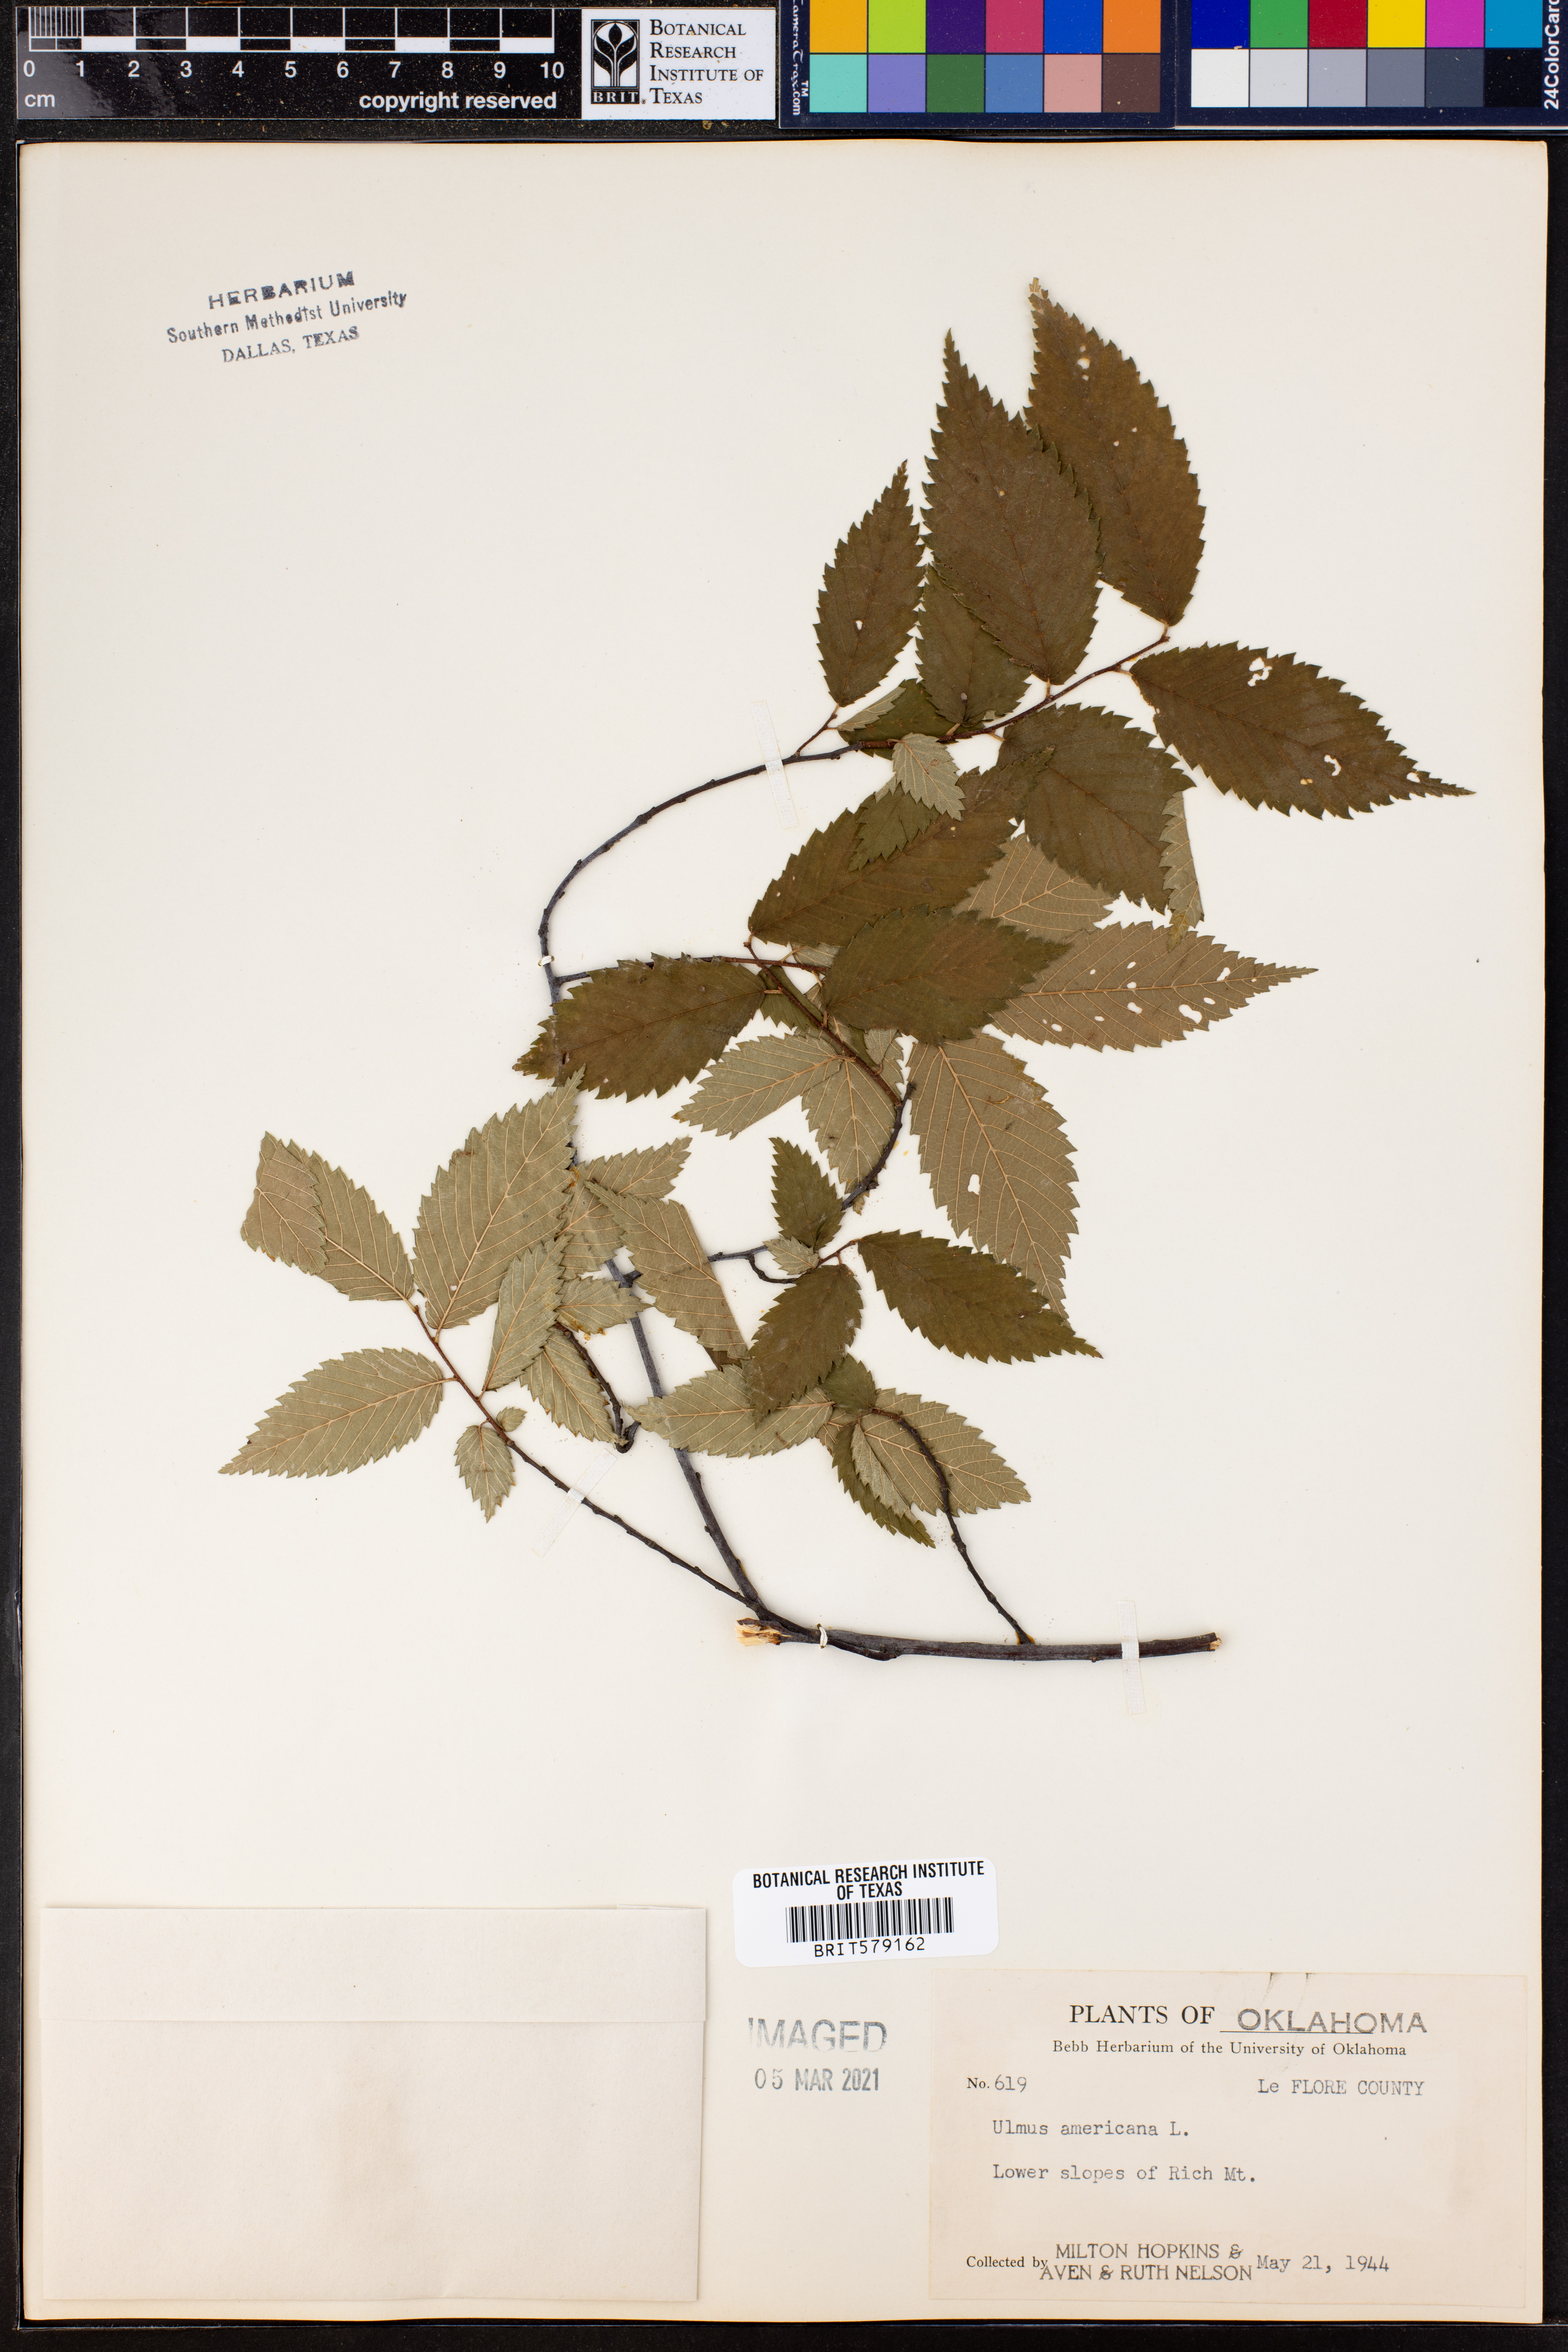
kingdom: Plantae
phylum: Tracheophyta
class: Magnoliopsida
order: Rosales
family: Ulmaceae
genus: Ulmus
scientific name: Ulmus americana
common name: American elm
